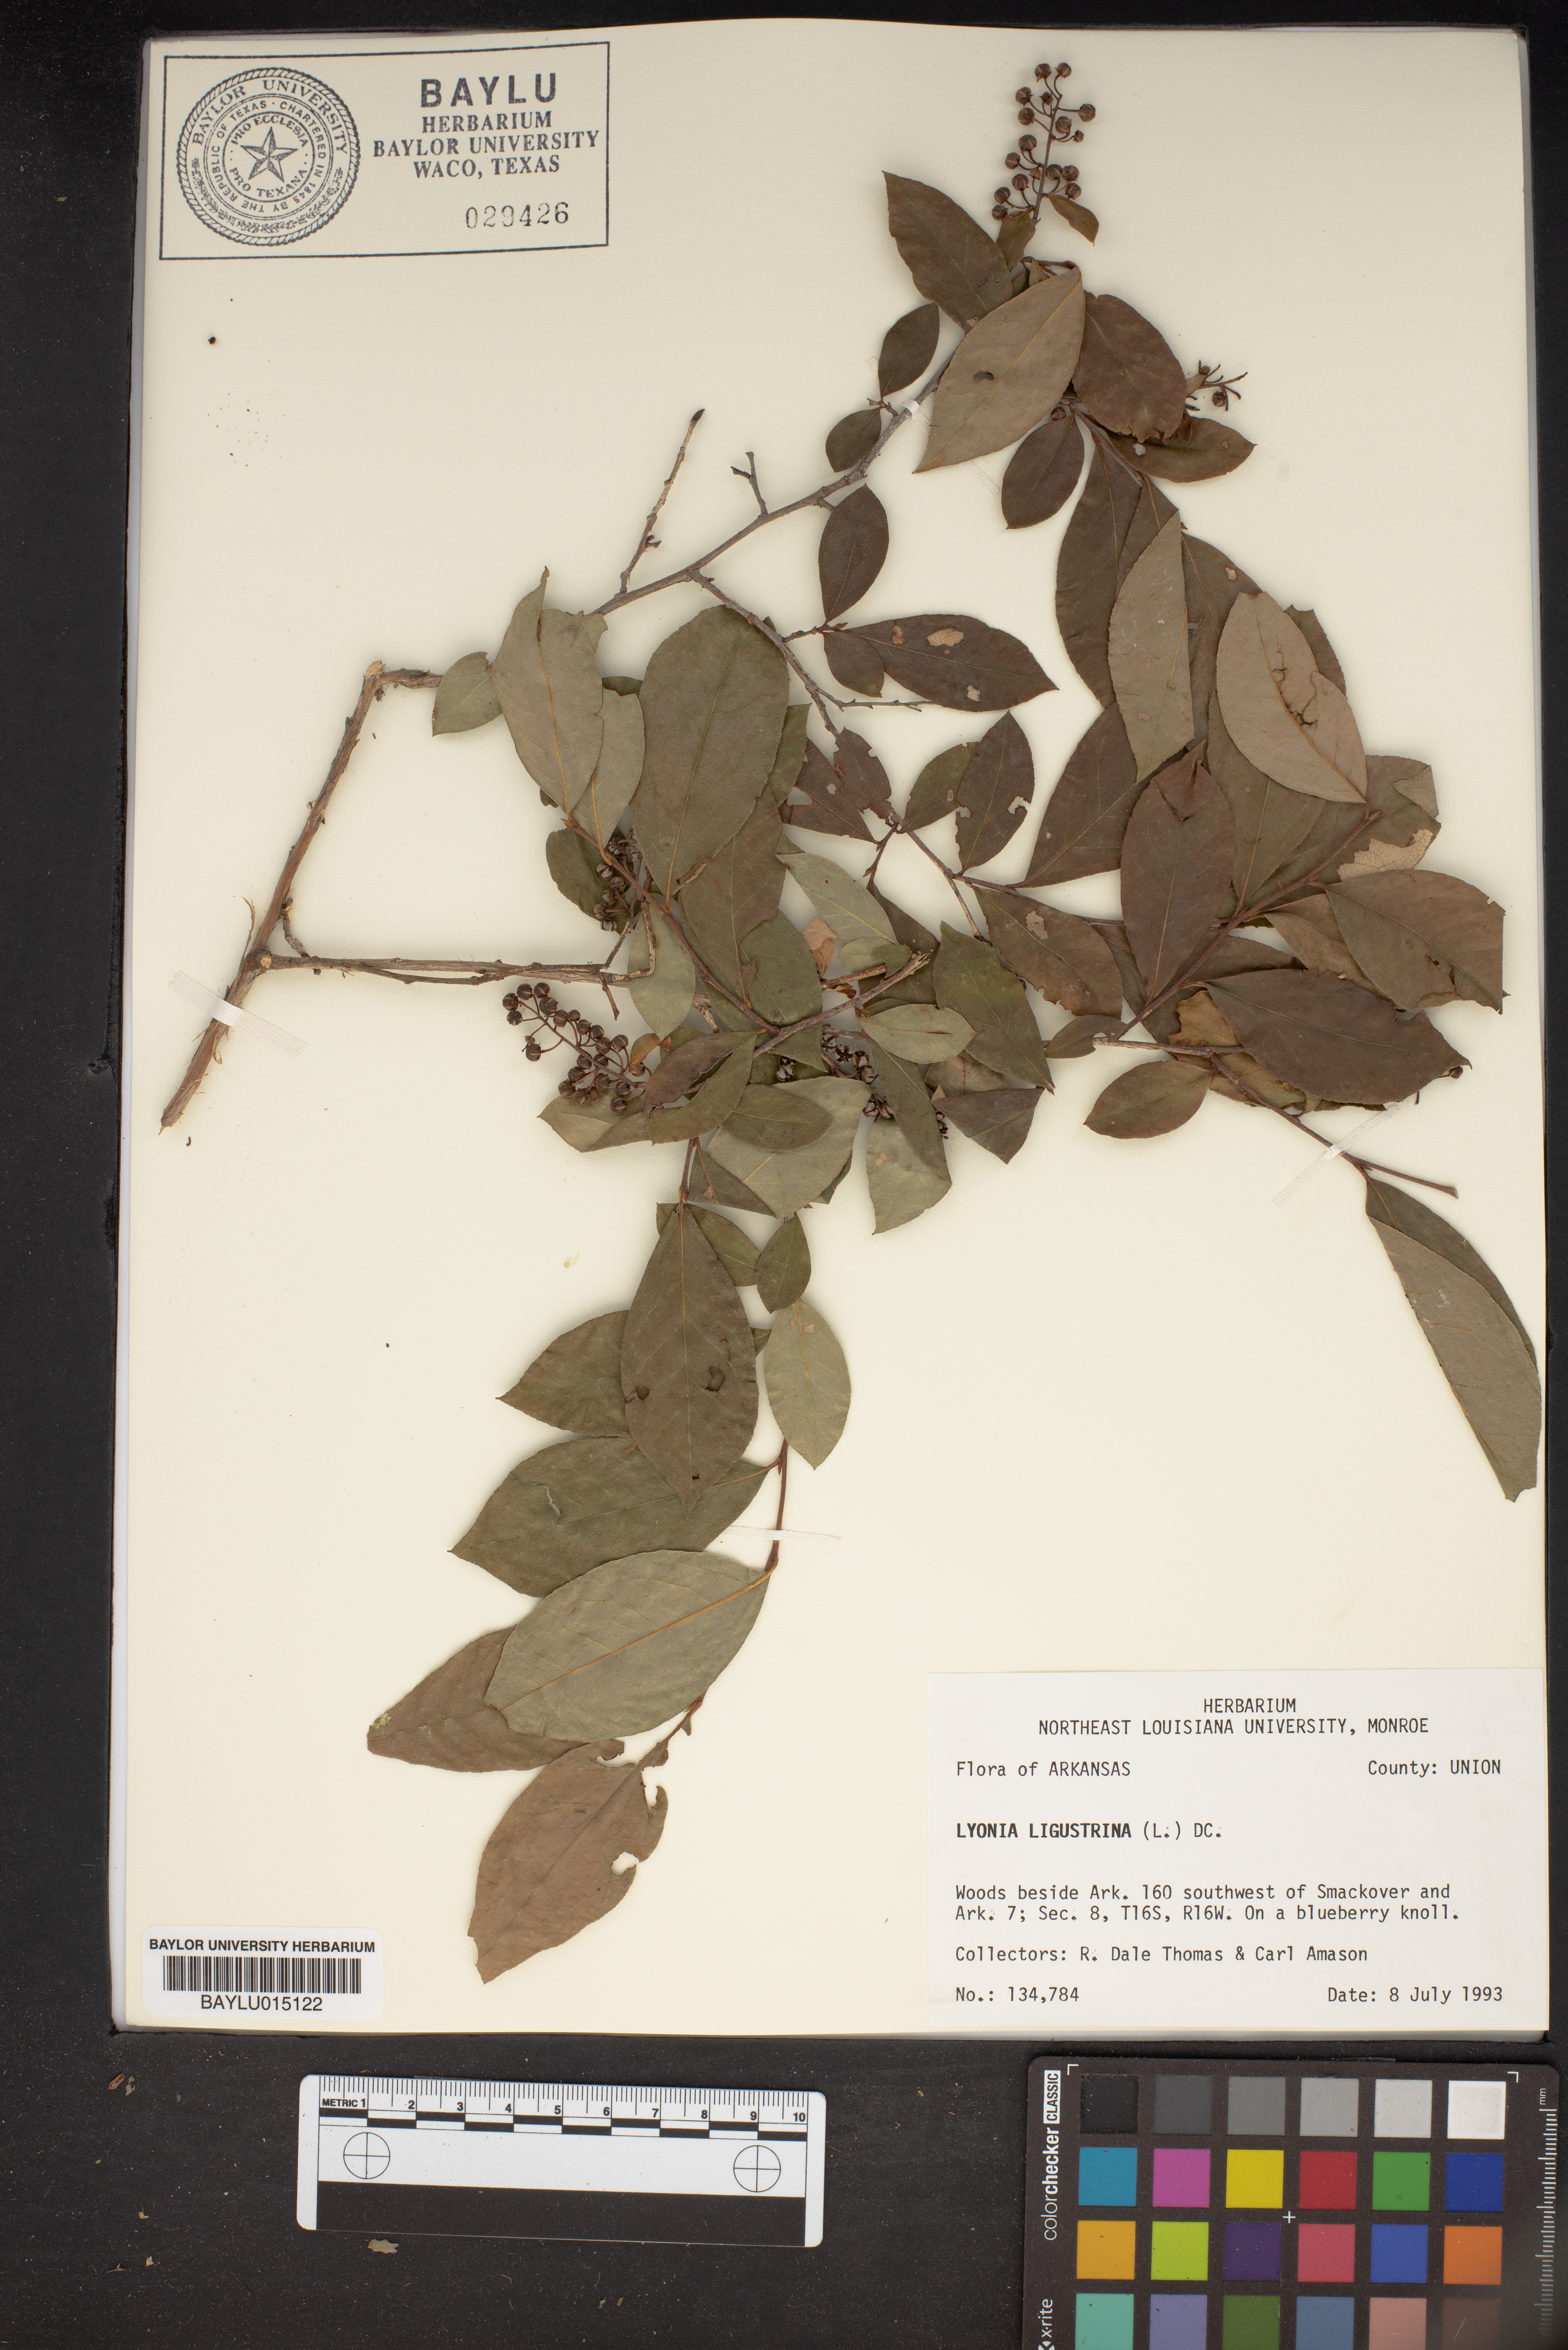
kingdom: Plantae
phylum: Tracheophyta
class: Magnoliopsida
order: Ericales
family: Ericaceae
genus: Lyonia
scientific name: Lyonia ligustrina
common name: Maleberry
